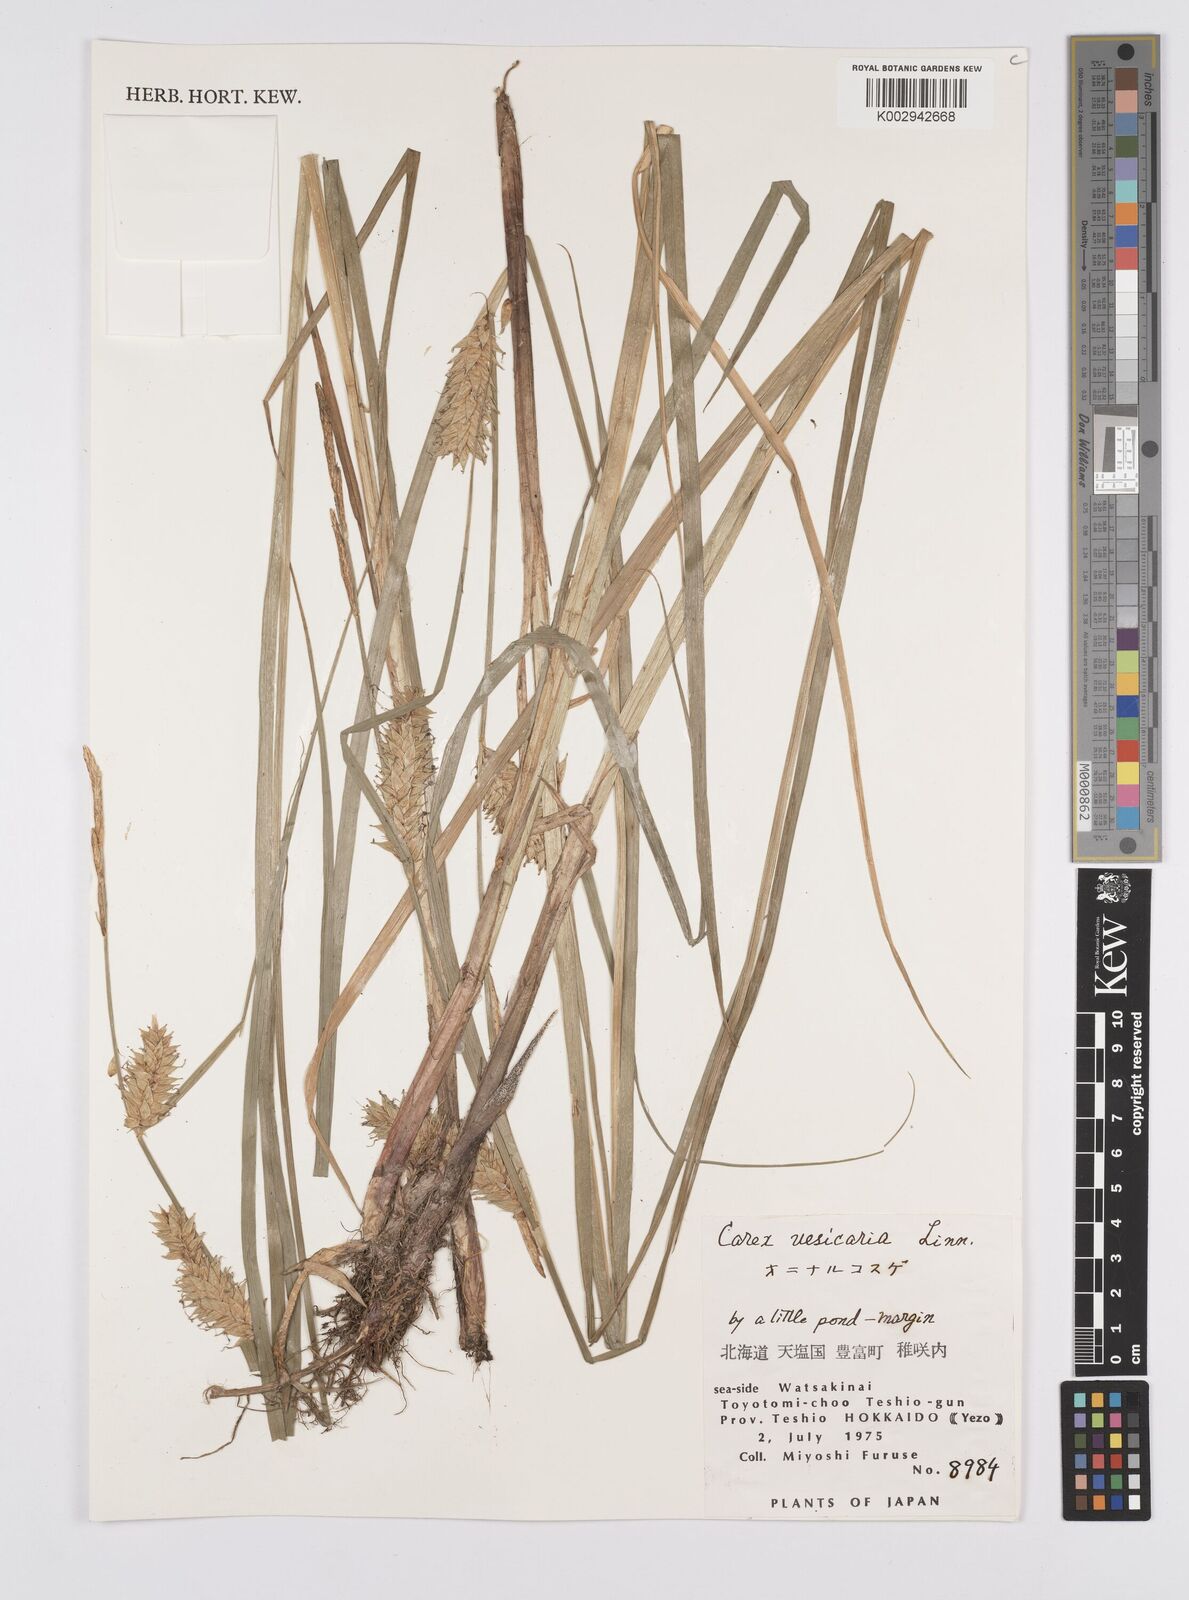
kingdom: Plantae
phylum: Tracheophyta
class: Liliopsida
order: Poales
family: Cyperaceae
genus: Carex
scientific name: Carex vesicaria
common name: Bladder-sedge
